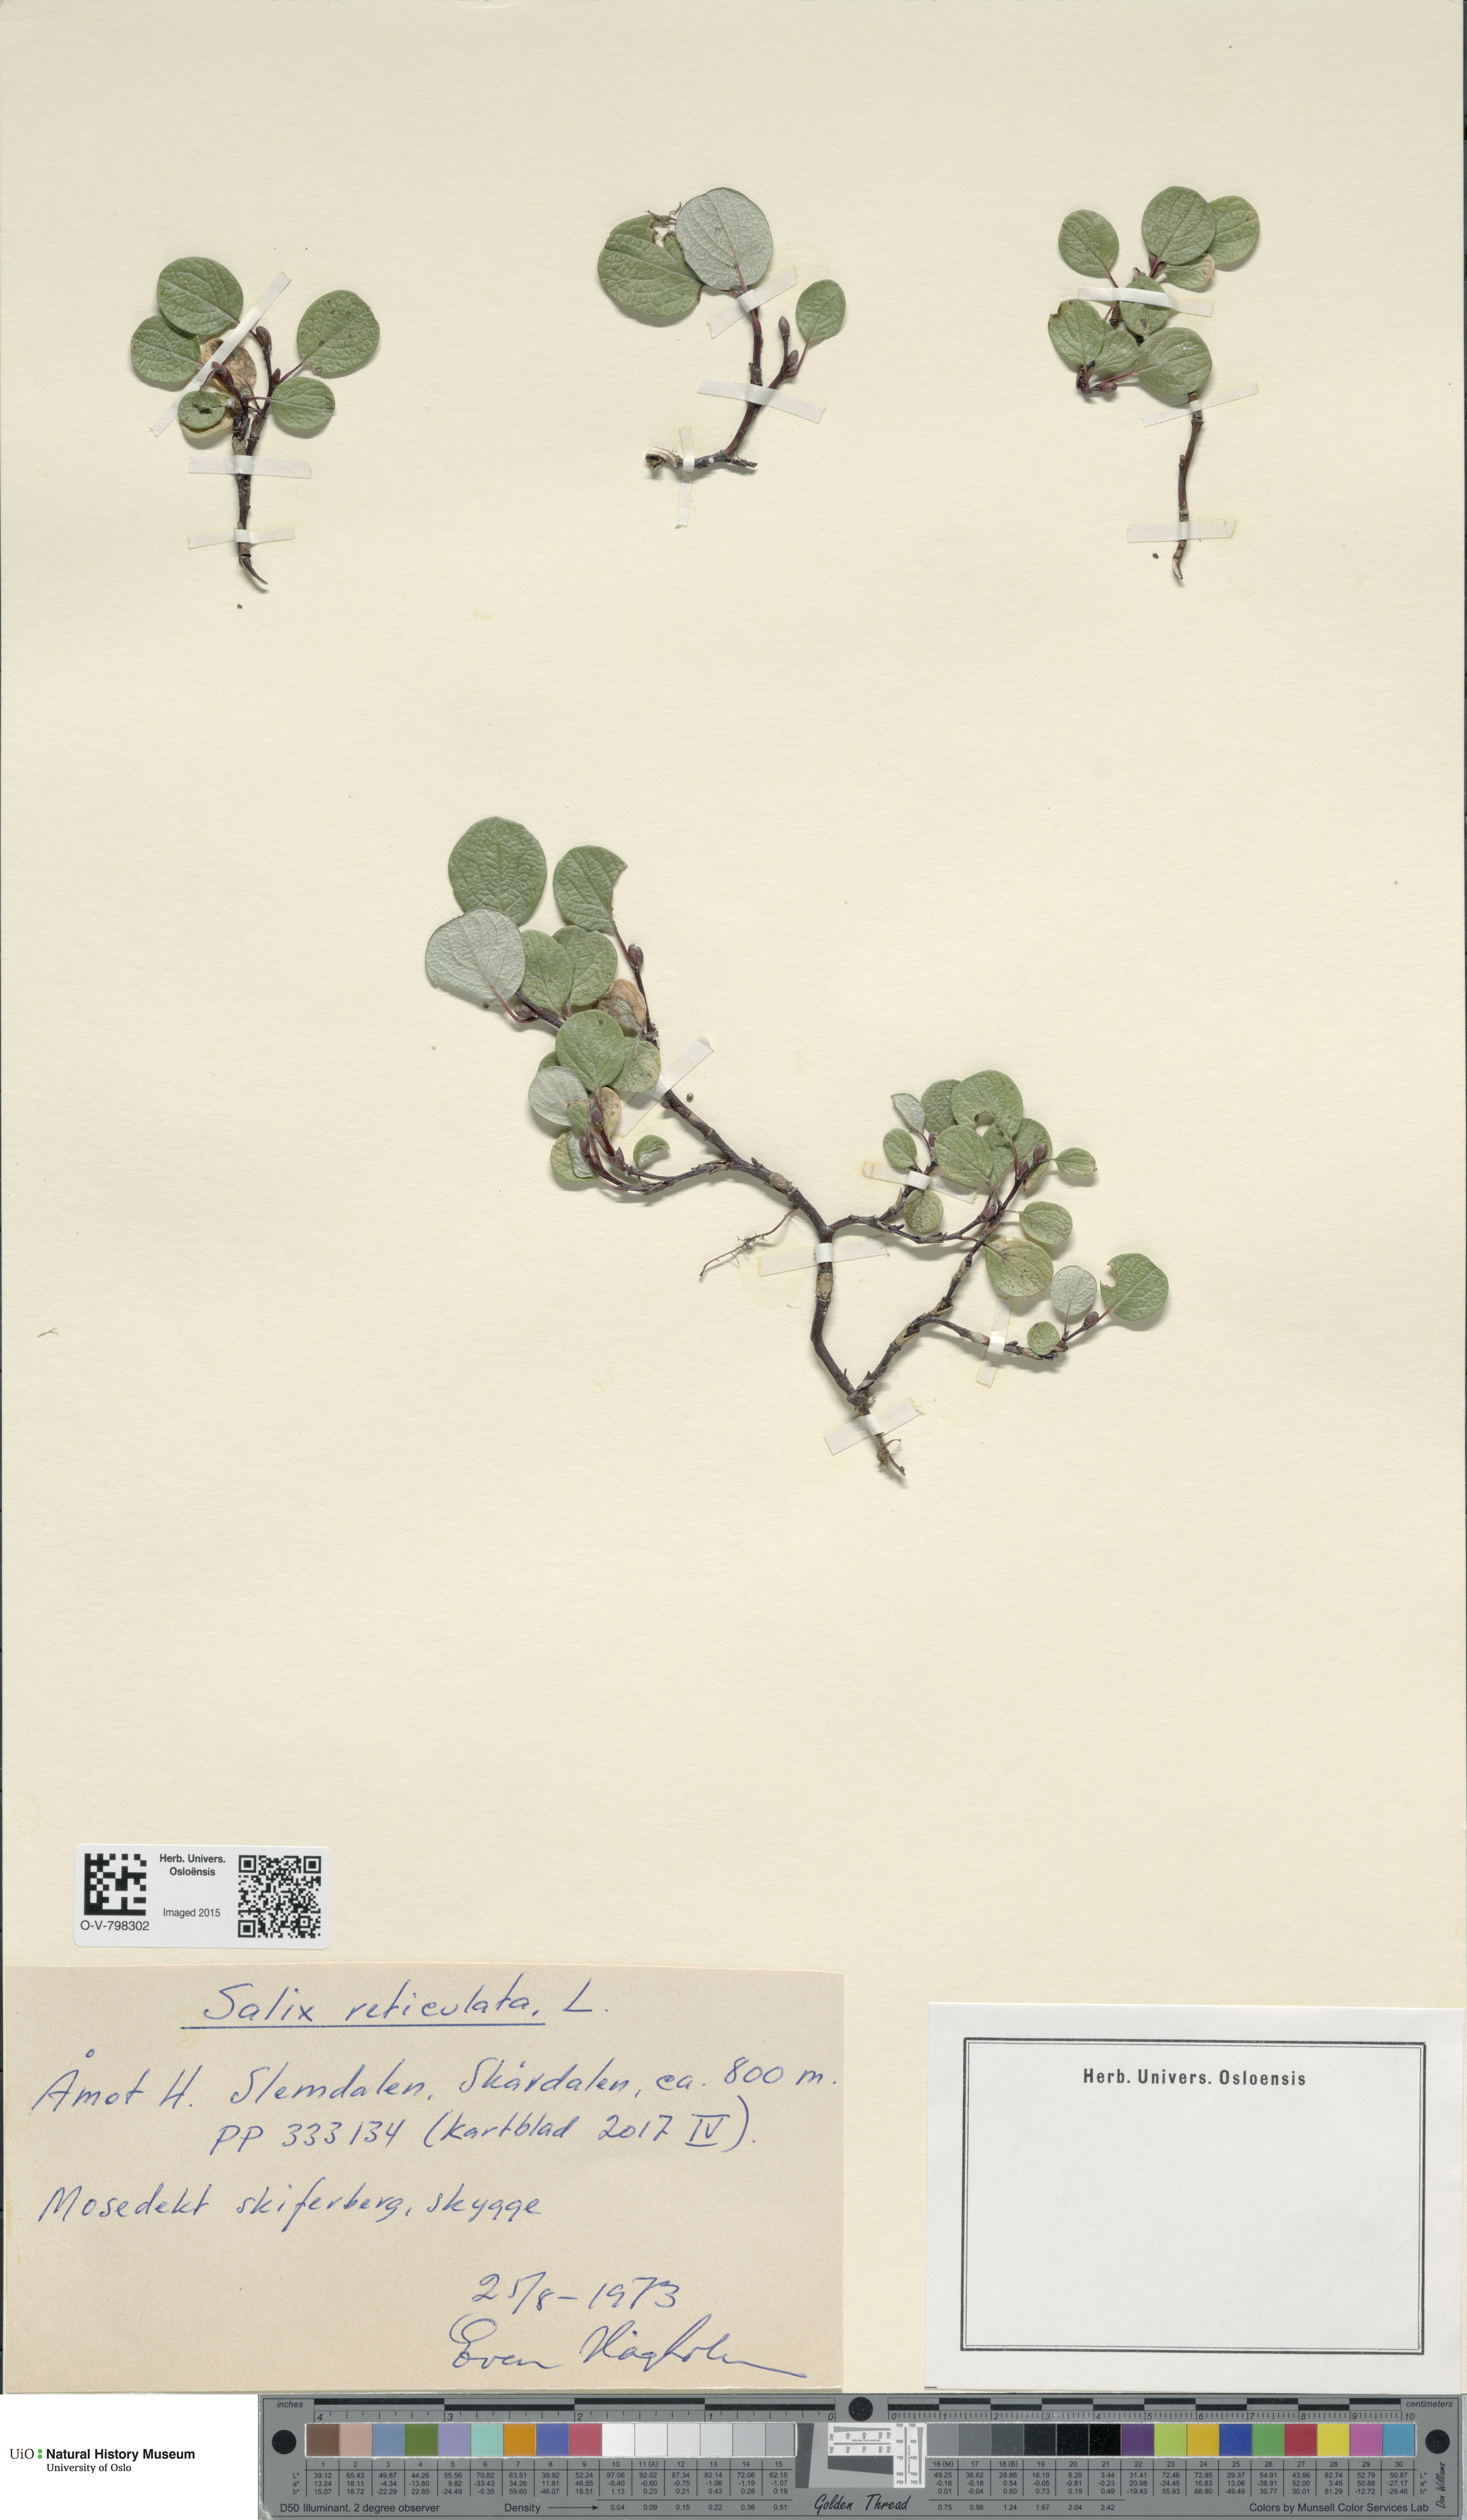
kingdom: Plantae
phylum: Tracheophyta
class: Magnoliopsida
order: Malpighiales
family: Salicaceae
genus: Salix
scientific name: Salix reticulata
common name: Net-leaved willow
